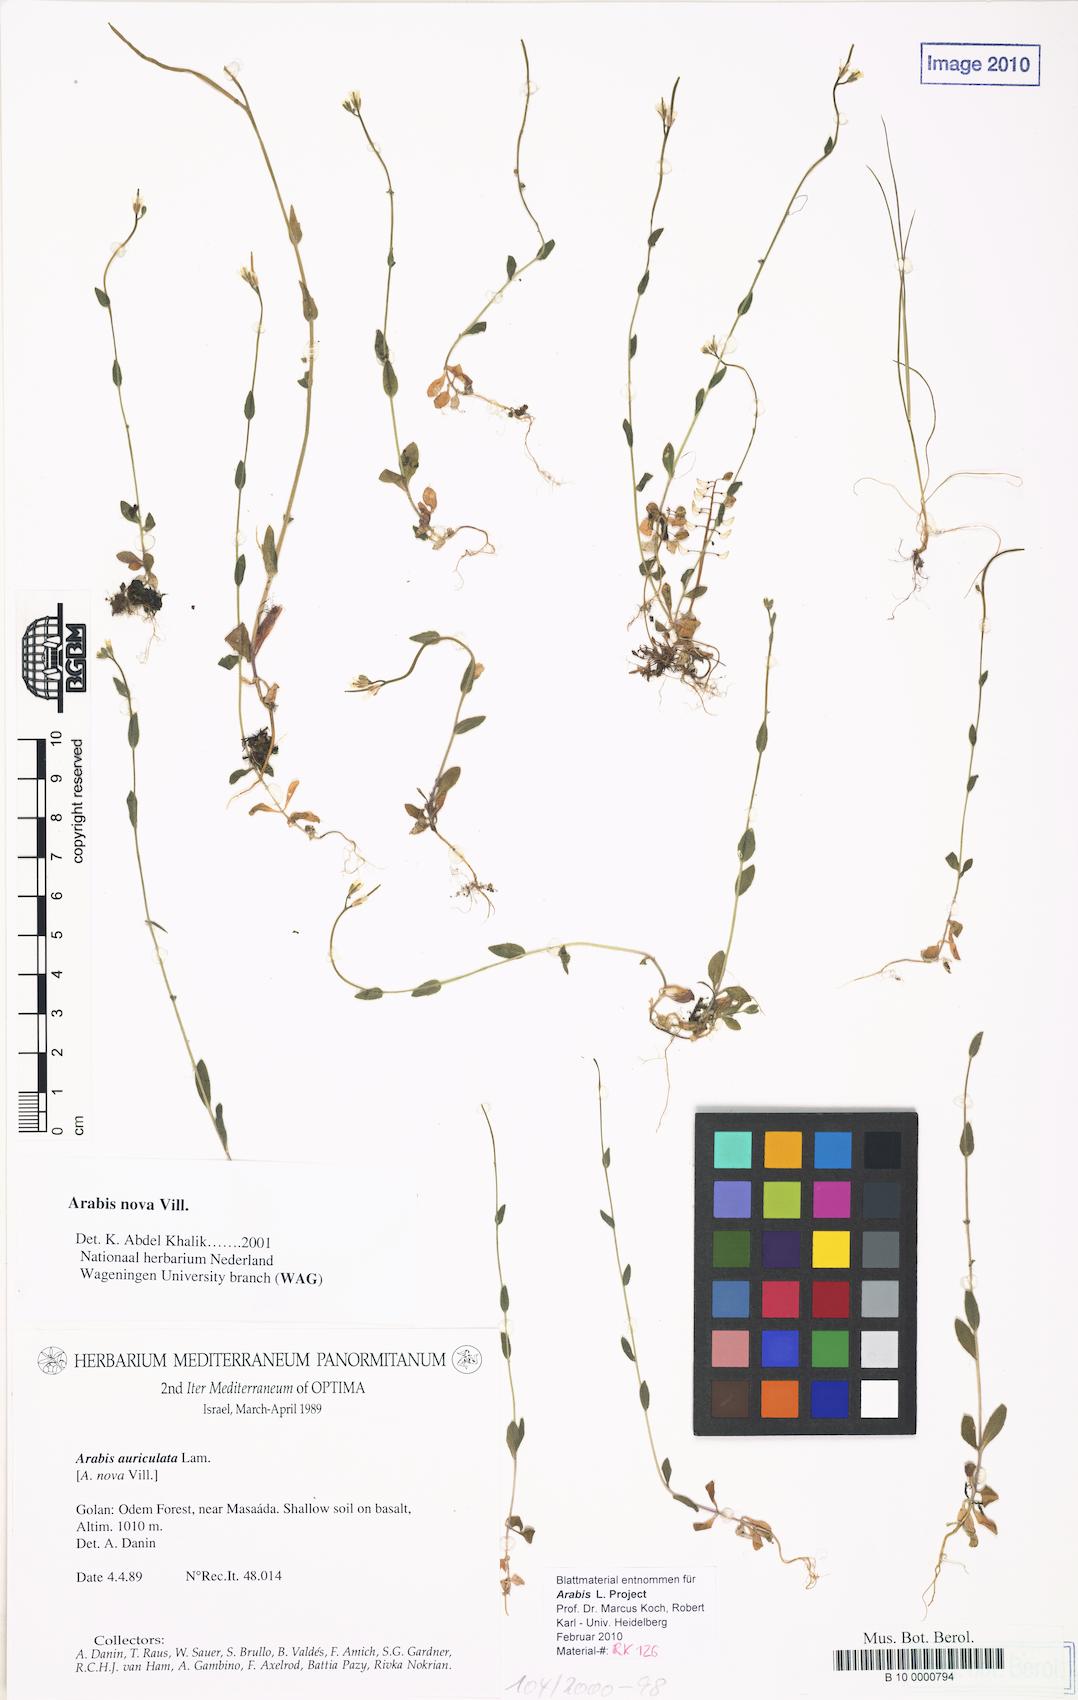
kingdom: Plantae
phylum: Tracheophyta
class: Magnoliopsida
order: Brassicales
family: Brassicaceae
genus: Arabis
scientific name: Arabis aucheri
